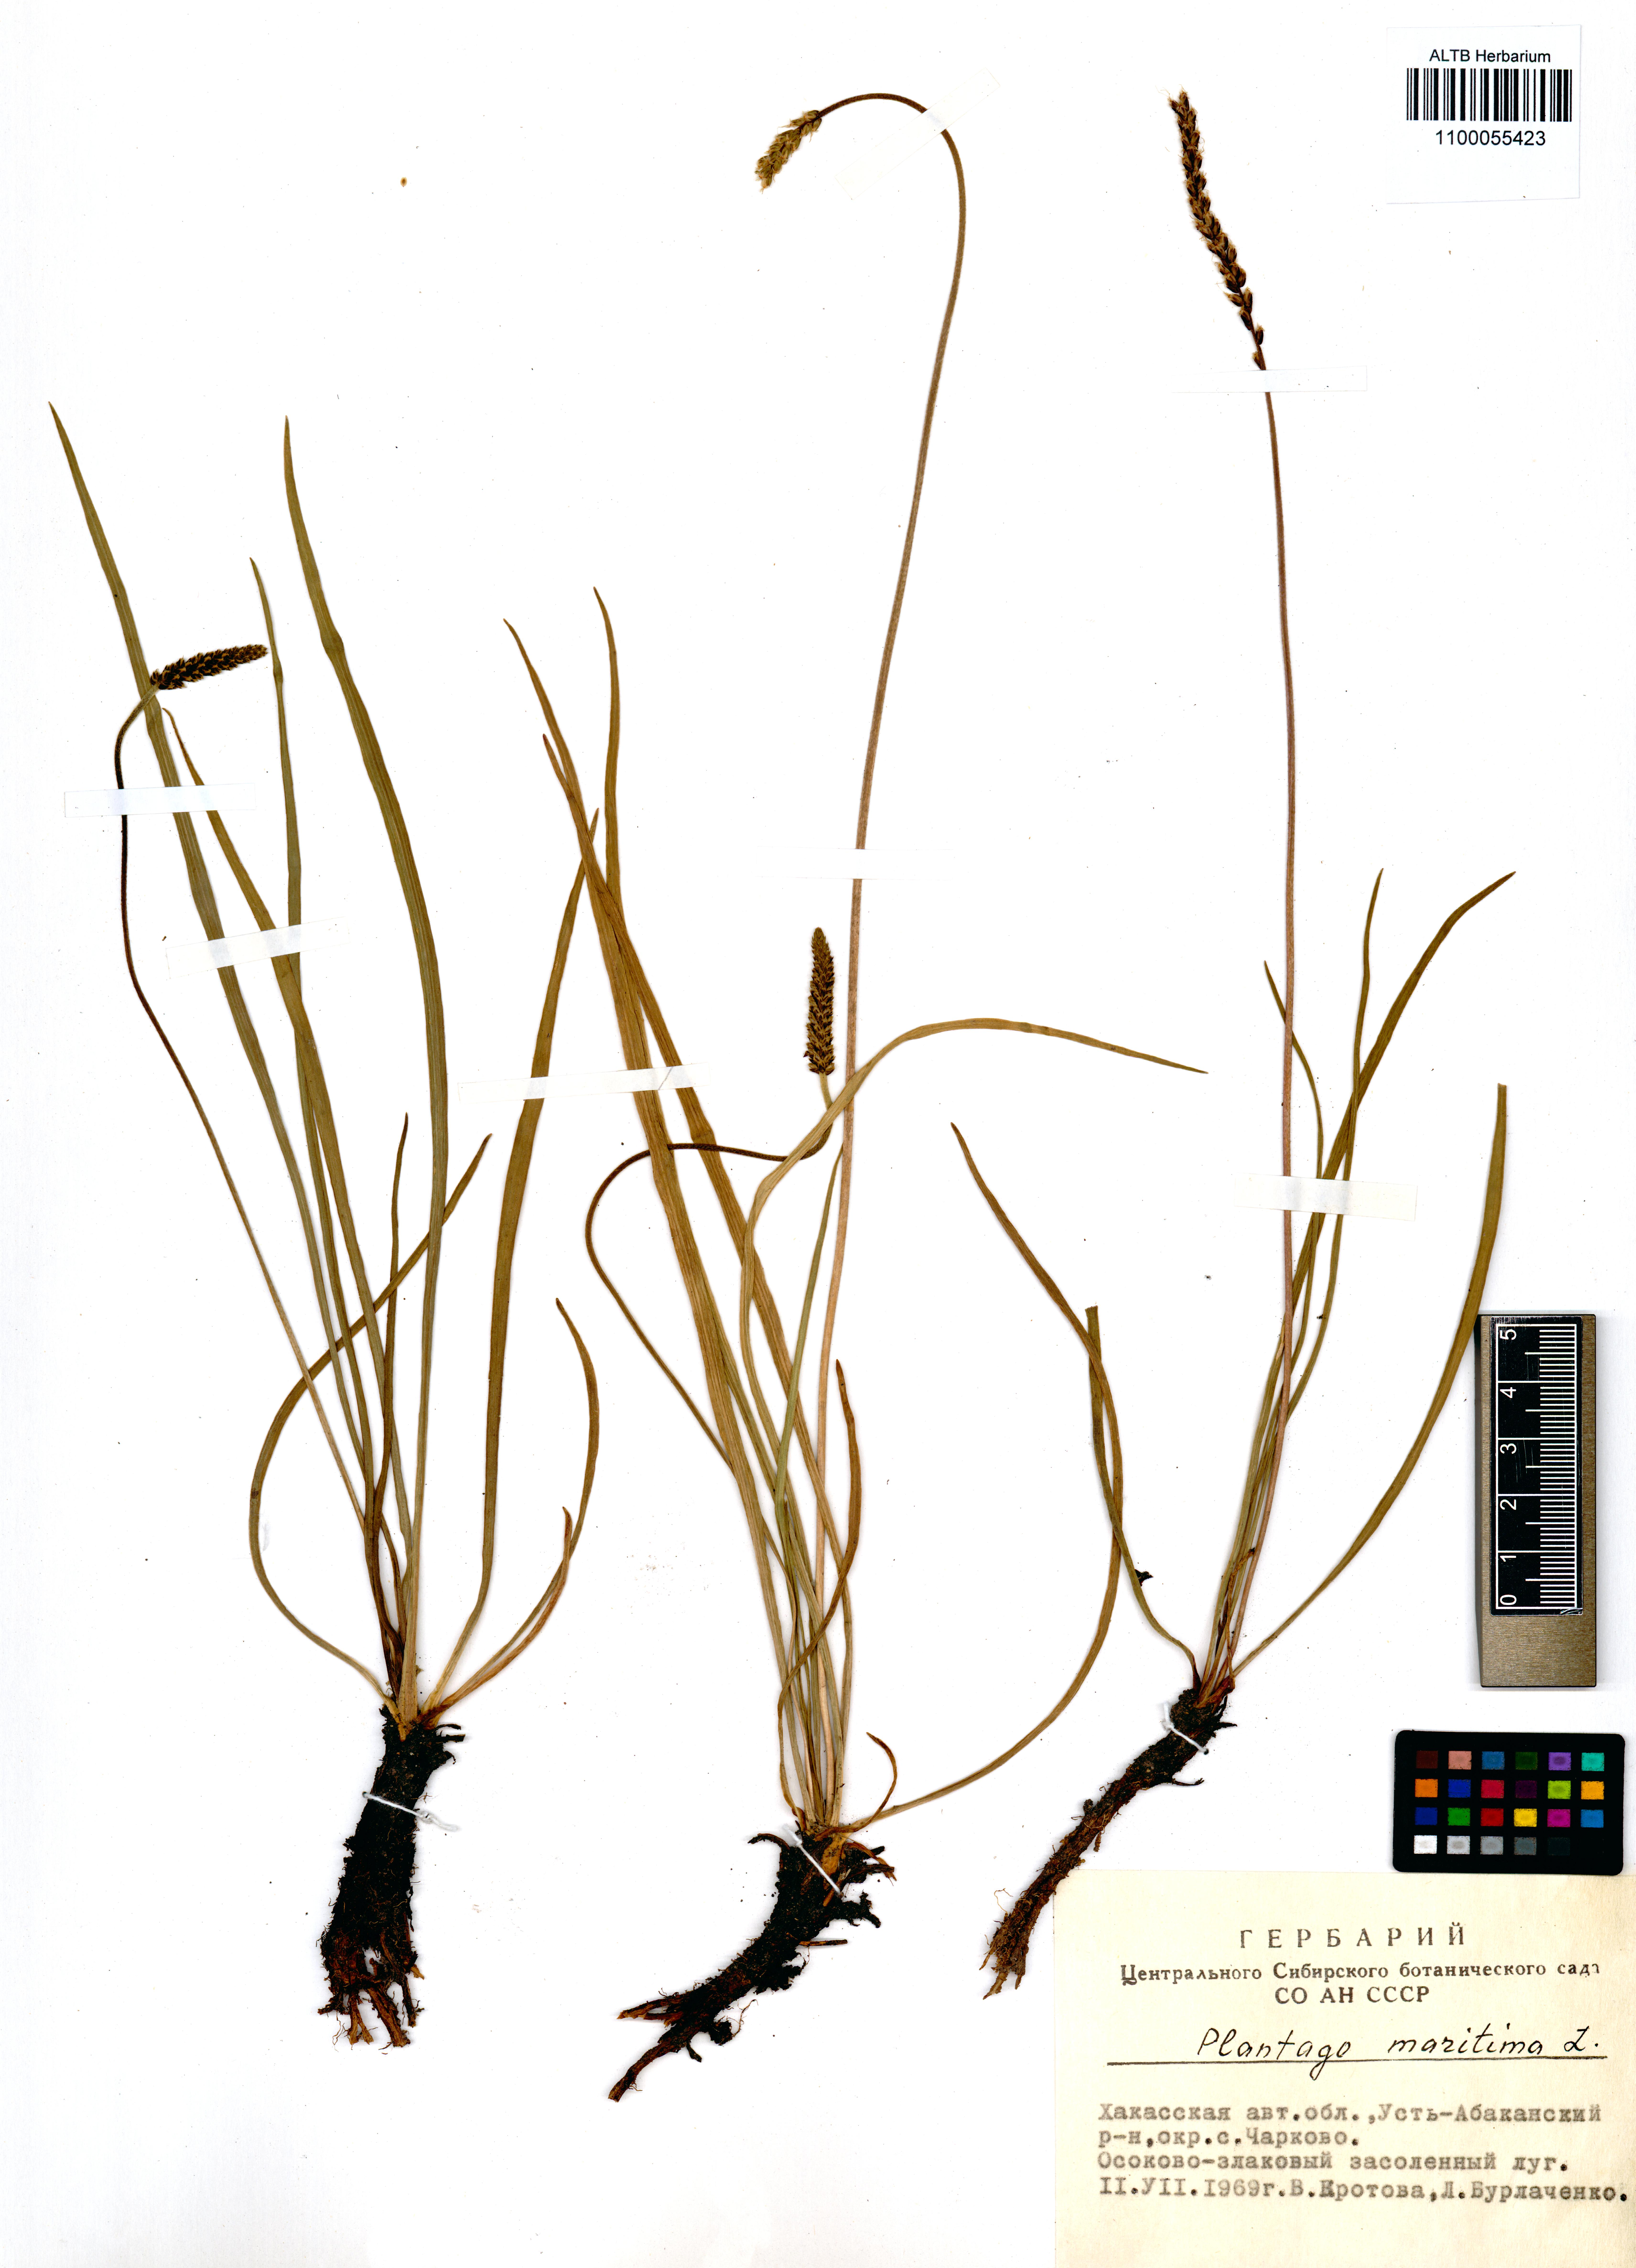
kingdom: Plantae
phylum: Tracheophyta
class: Magnoliopsida
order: Lamiales
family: Plantaginaceae
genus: Plantago
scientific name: Plantago maritima
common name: Sea plantain
